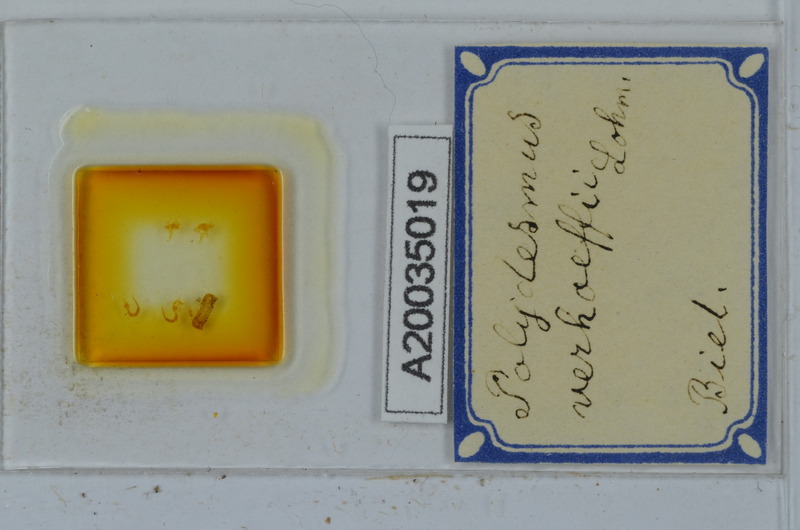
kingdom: Animalia
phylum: Arthropoda
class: Diplopoda
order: Polydesmida
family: Polydesmidae
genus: Polydesmus
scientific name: Polydesmus angustus
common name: Flat millipede
